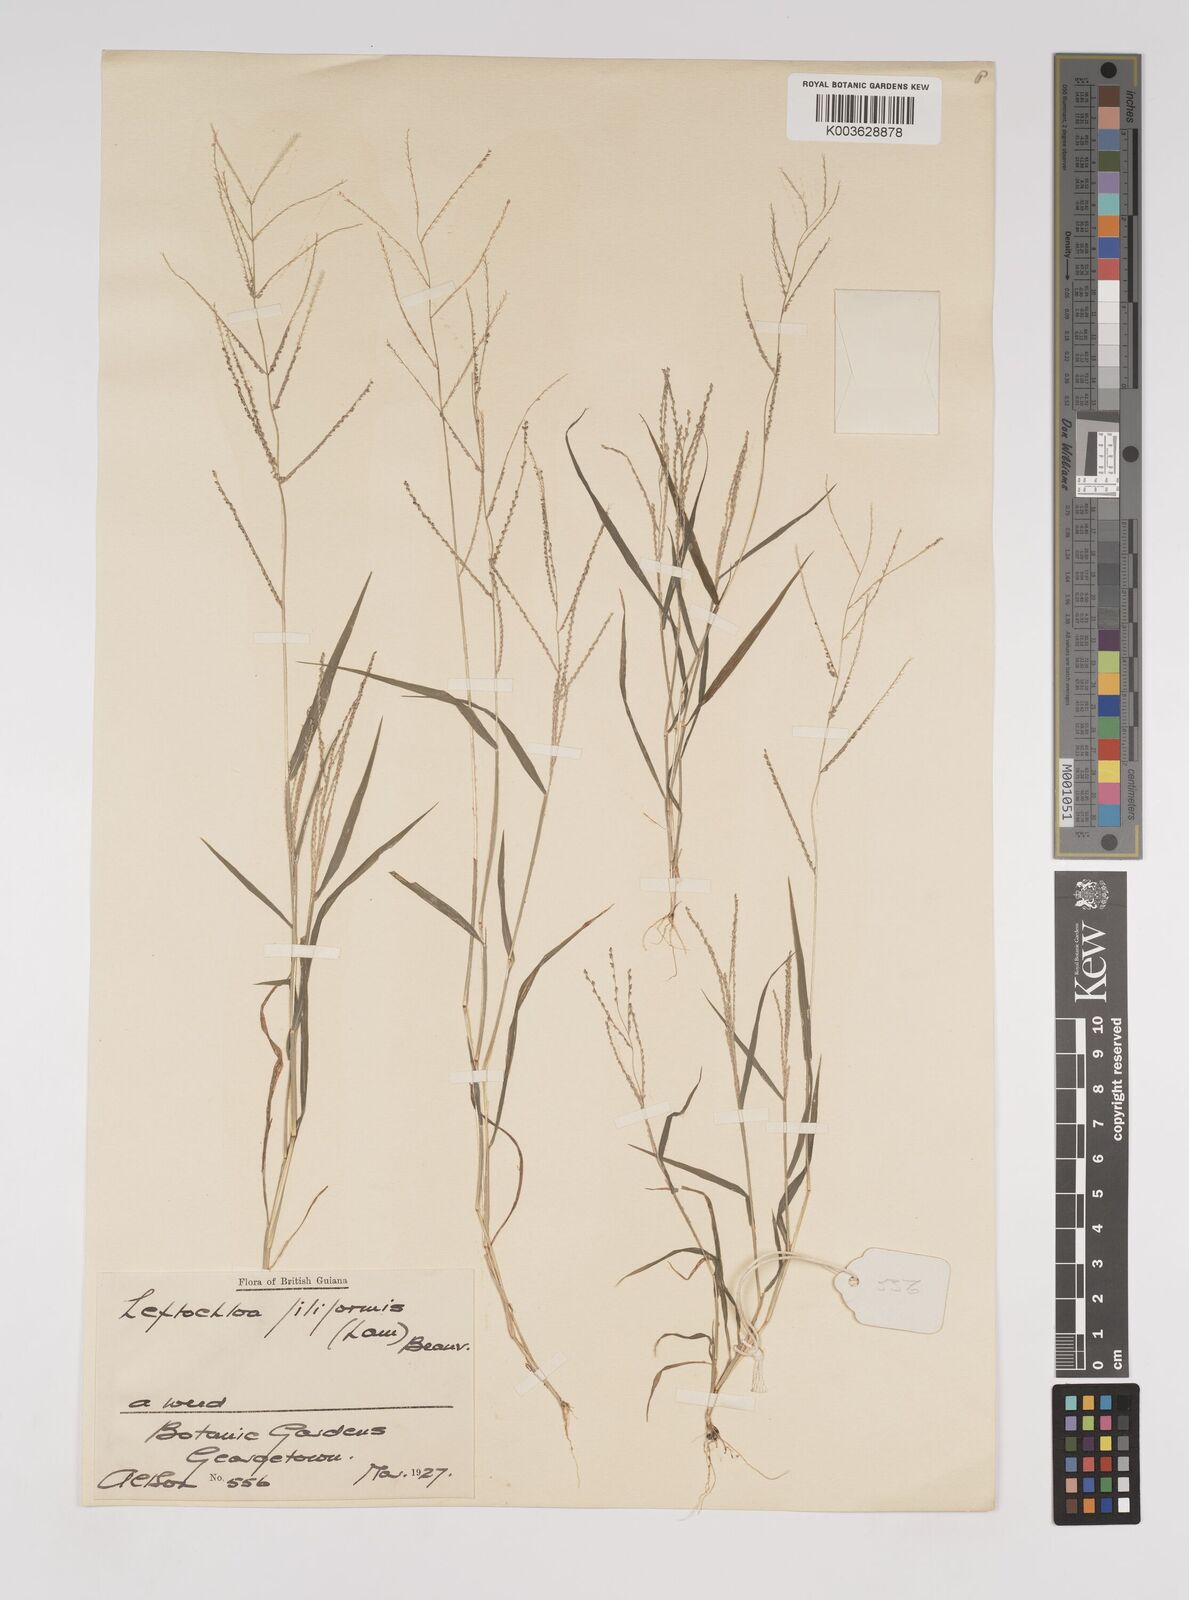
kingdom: Plantae
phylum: Tracheophyta
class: Liliopsida
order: Poales
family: Poaceae
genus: Leptochloa
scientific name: Leptochloa panicea
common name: Mucronate sprangletop
